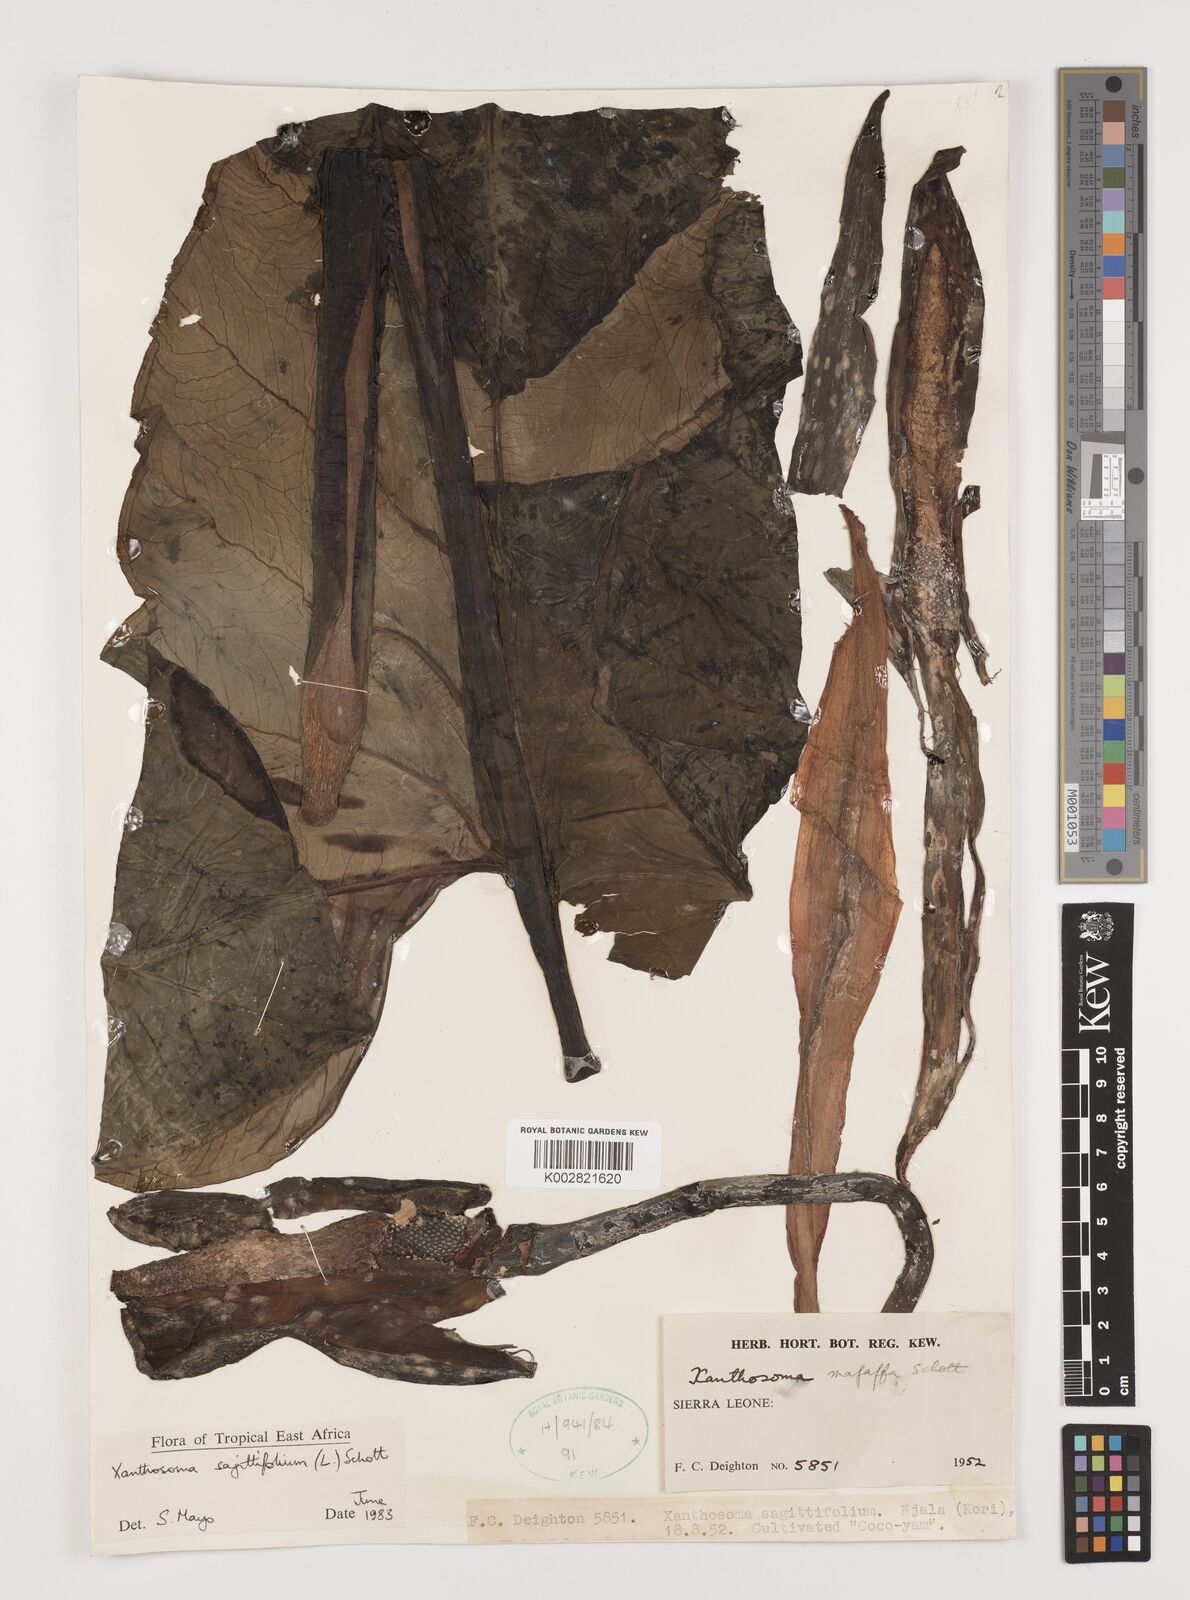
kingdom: Plantae
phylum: Tracheophyta
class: Liliopsida
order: Alismatales
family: Araceae
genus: Xanthosoma
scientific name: Xanthosoma sagittifolium
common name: Arrowleaf elephant's ear
